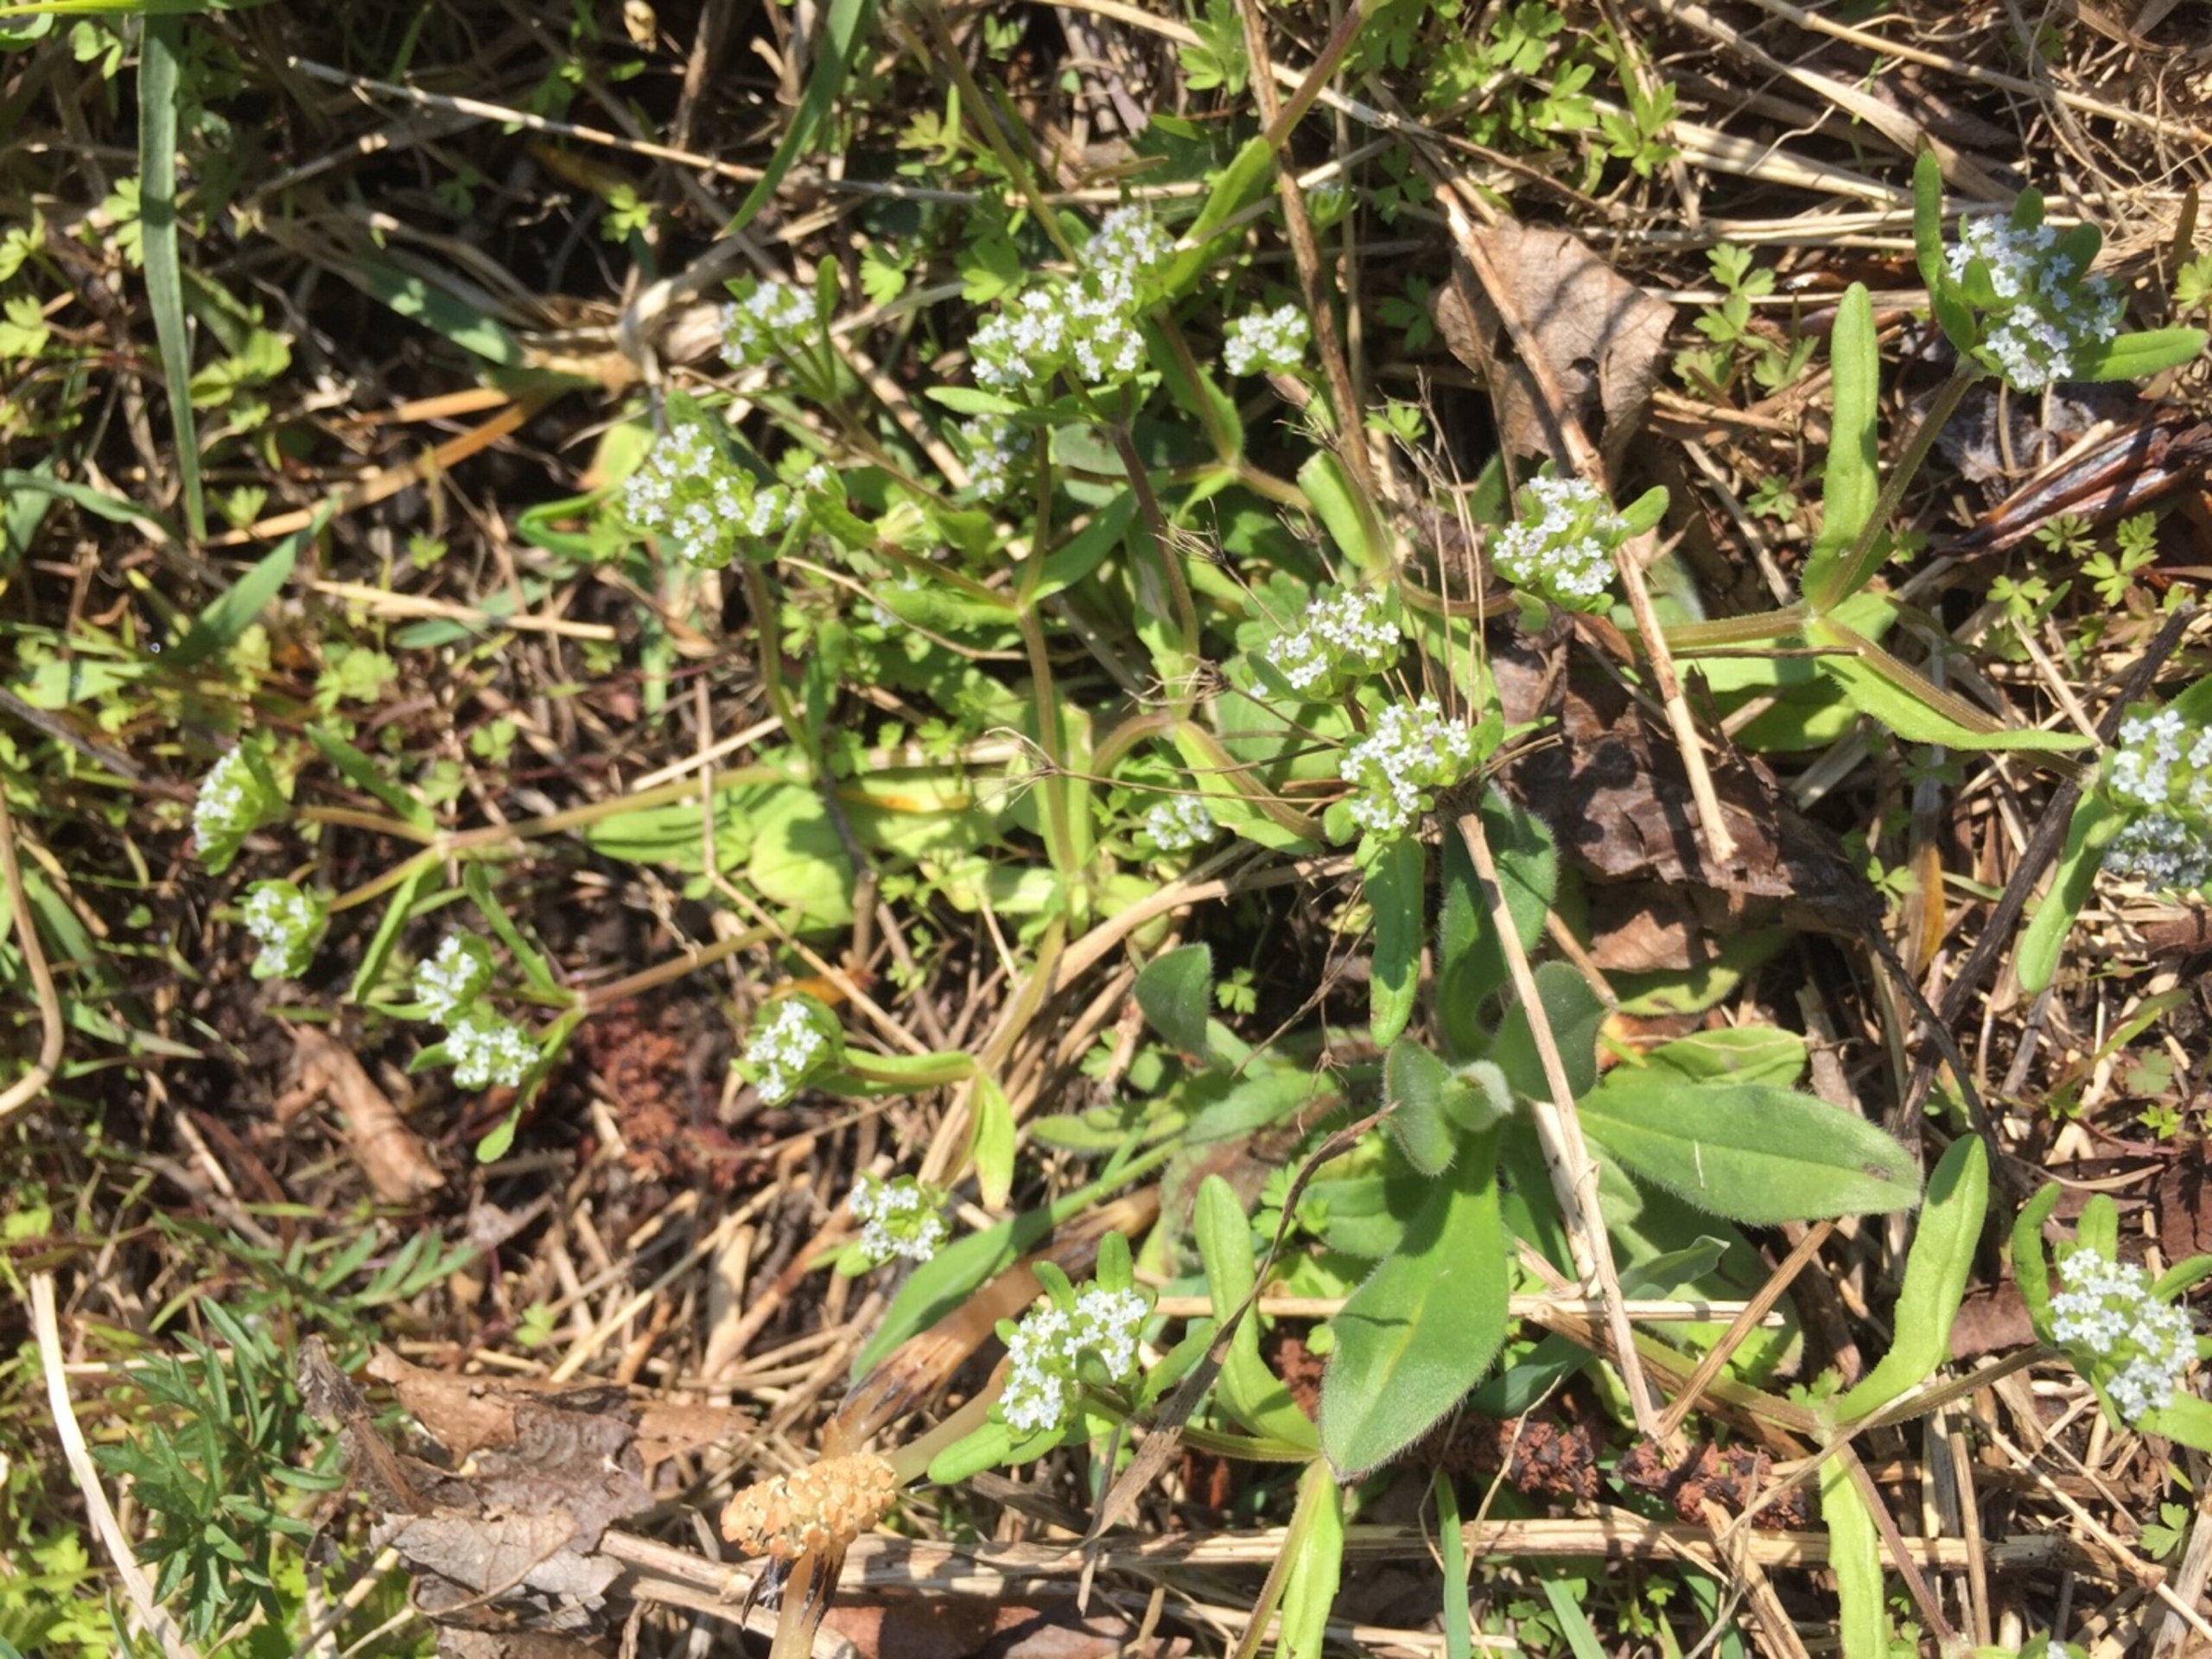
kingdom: Plantae
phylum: Tracheophyta
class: Magnoliopsida
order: Dipsacales
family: Caprifoliaceae
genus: Valerianella
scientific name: Valerianella locusta
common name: Tandfri vårsalat
